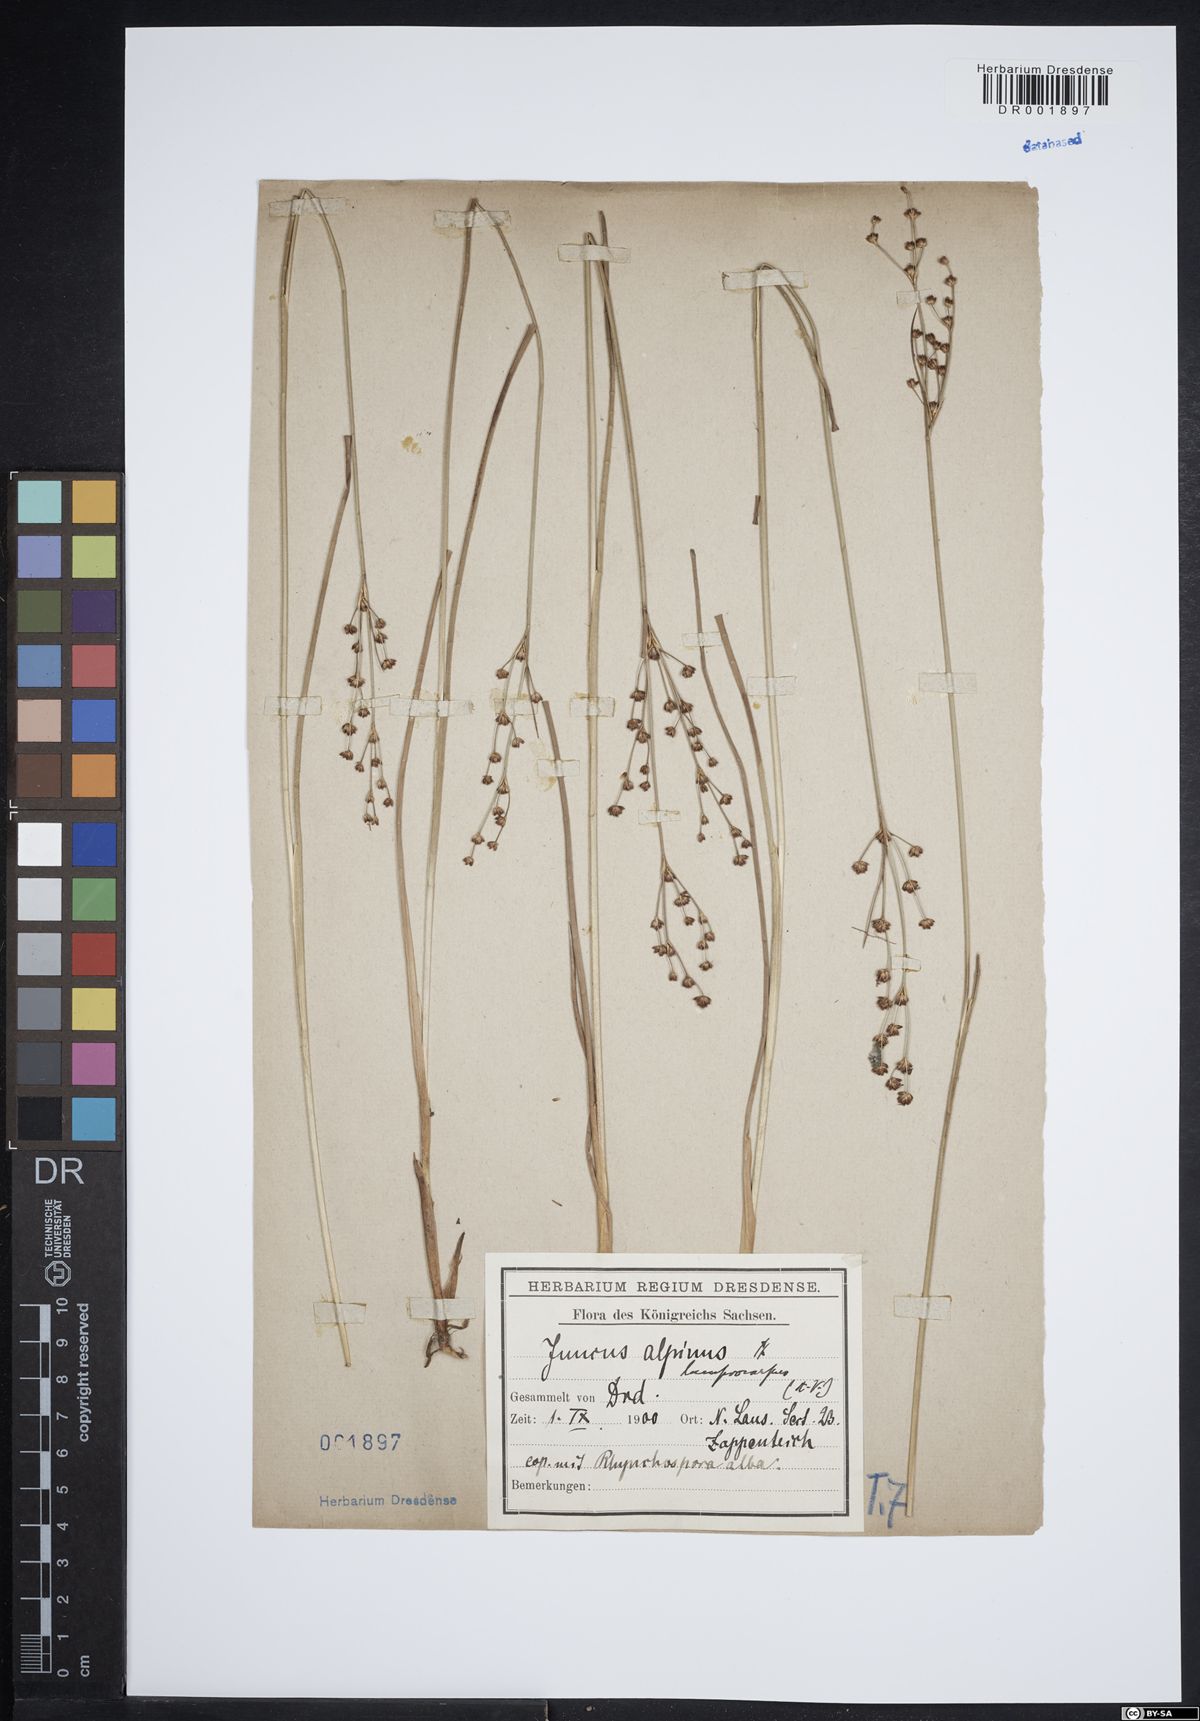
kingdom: Plantae
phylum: Tracheophyta
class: Liliopsida
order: Poales
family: Juncaceae
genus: Juncus
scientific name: Juncus articulatus
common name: Jointed rush
